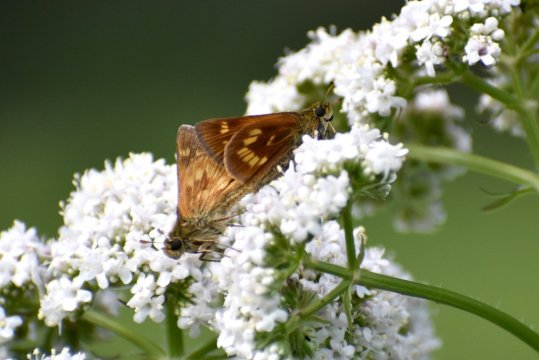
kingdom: Animalia
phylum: Arthropoda
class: Insecta
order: Lepidoptera
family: Hesperiidae
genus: Polites
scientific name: Polites
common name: Long Dash Skipper
